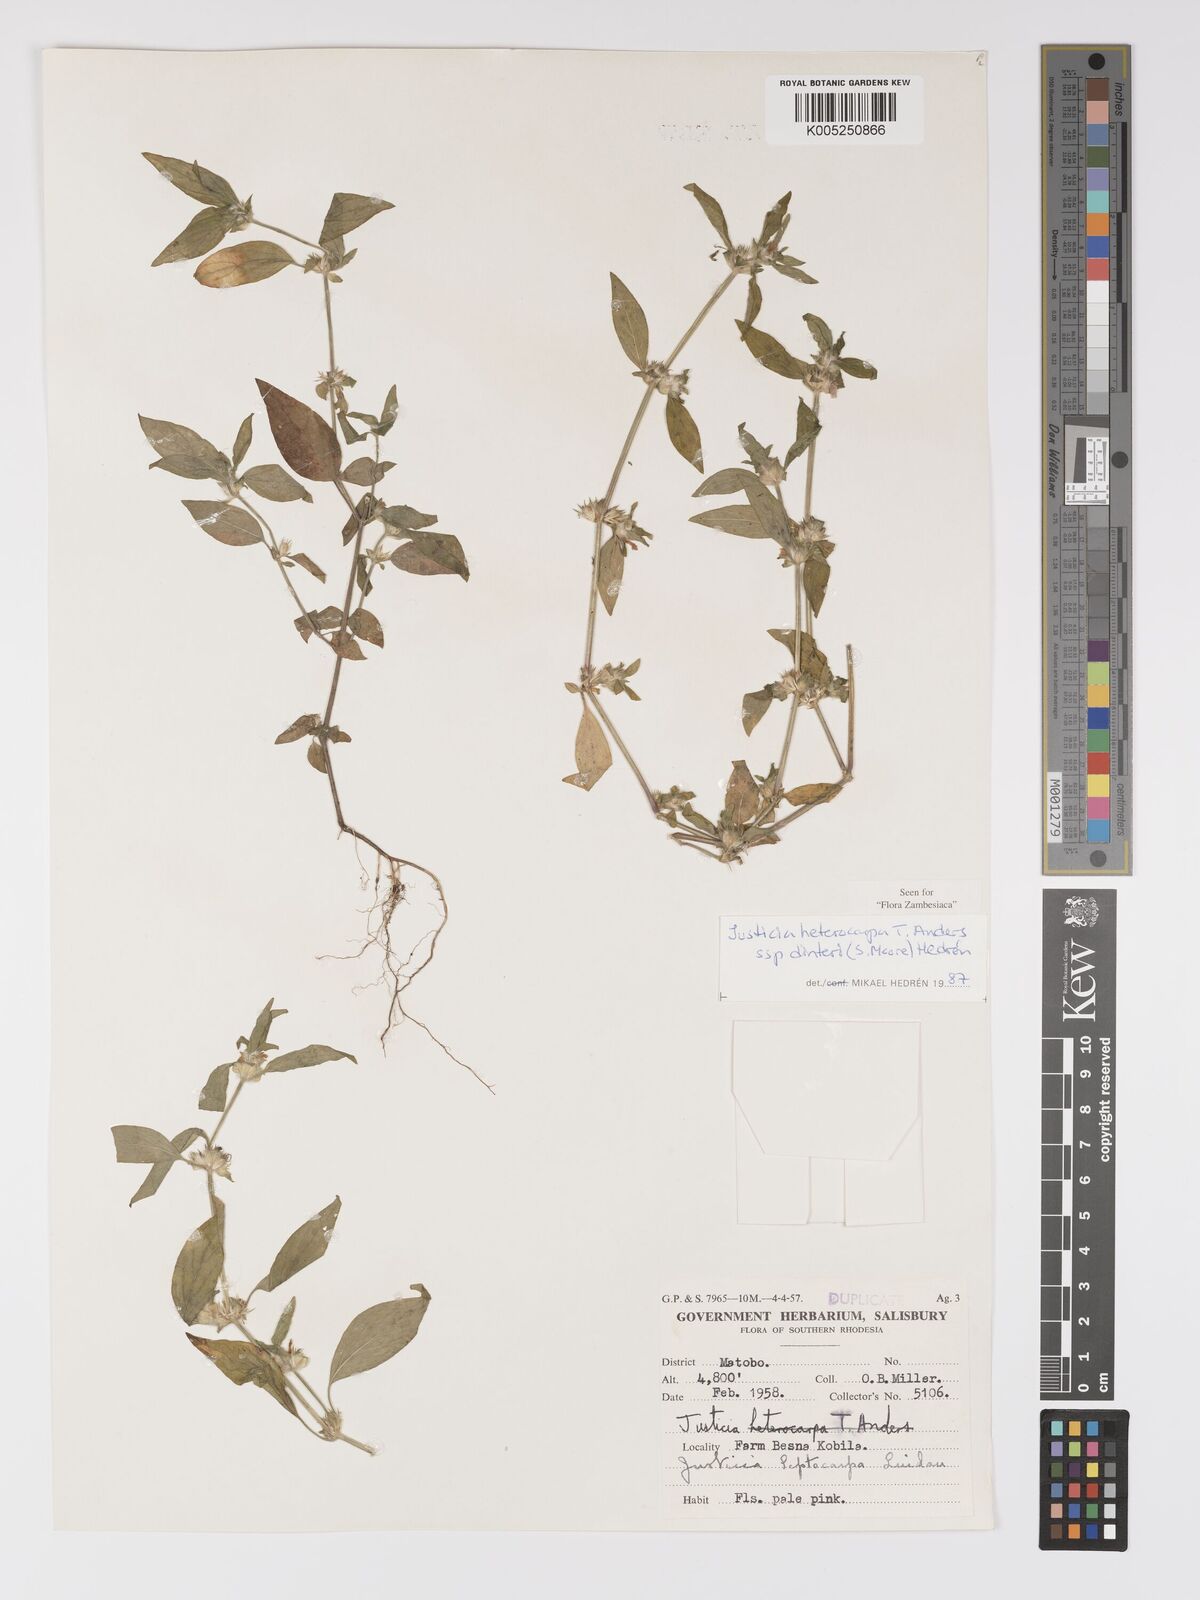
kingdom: Plantae
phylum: Tracheophyta
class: Magnoliopsida
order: Lamiales
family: Acanthaceae
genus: Justicia
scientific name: Justicia heterocarpa
